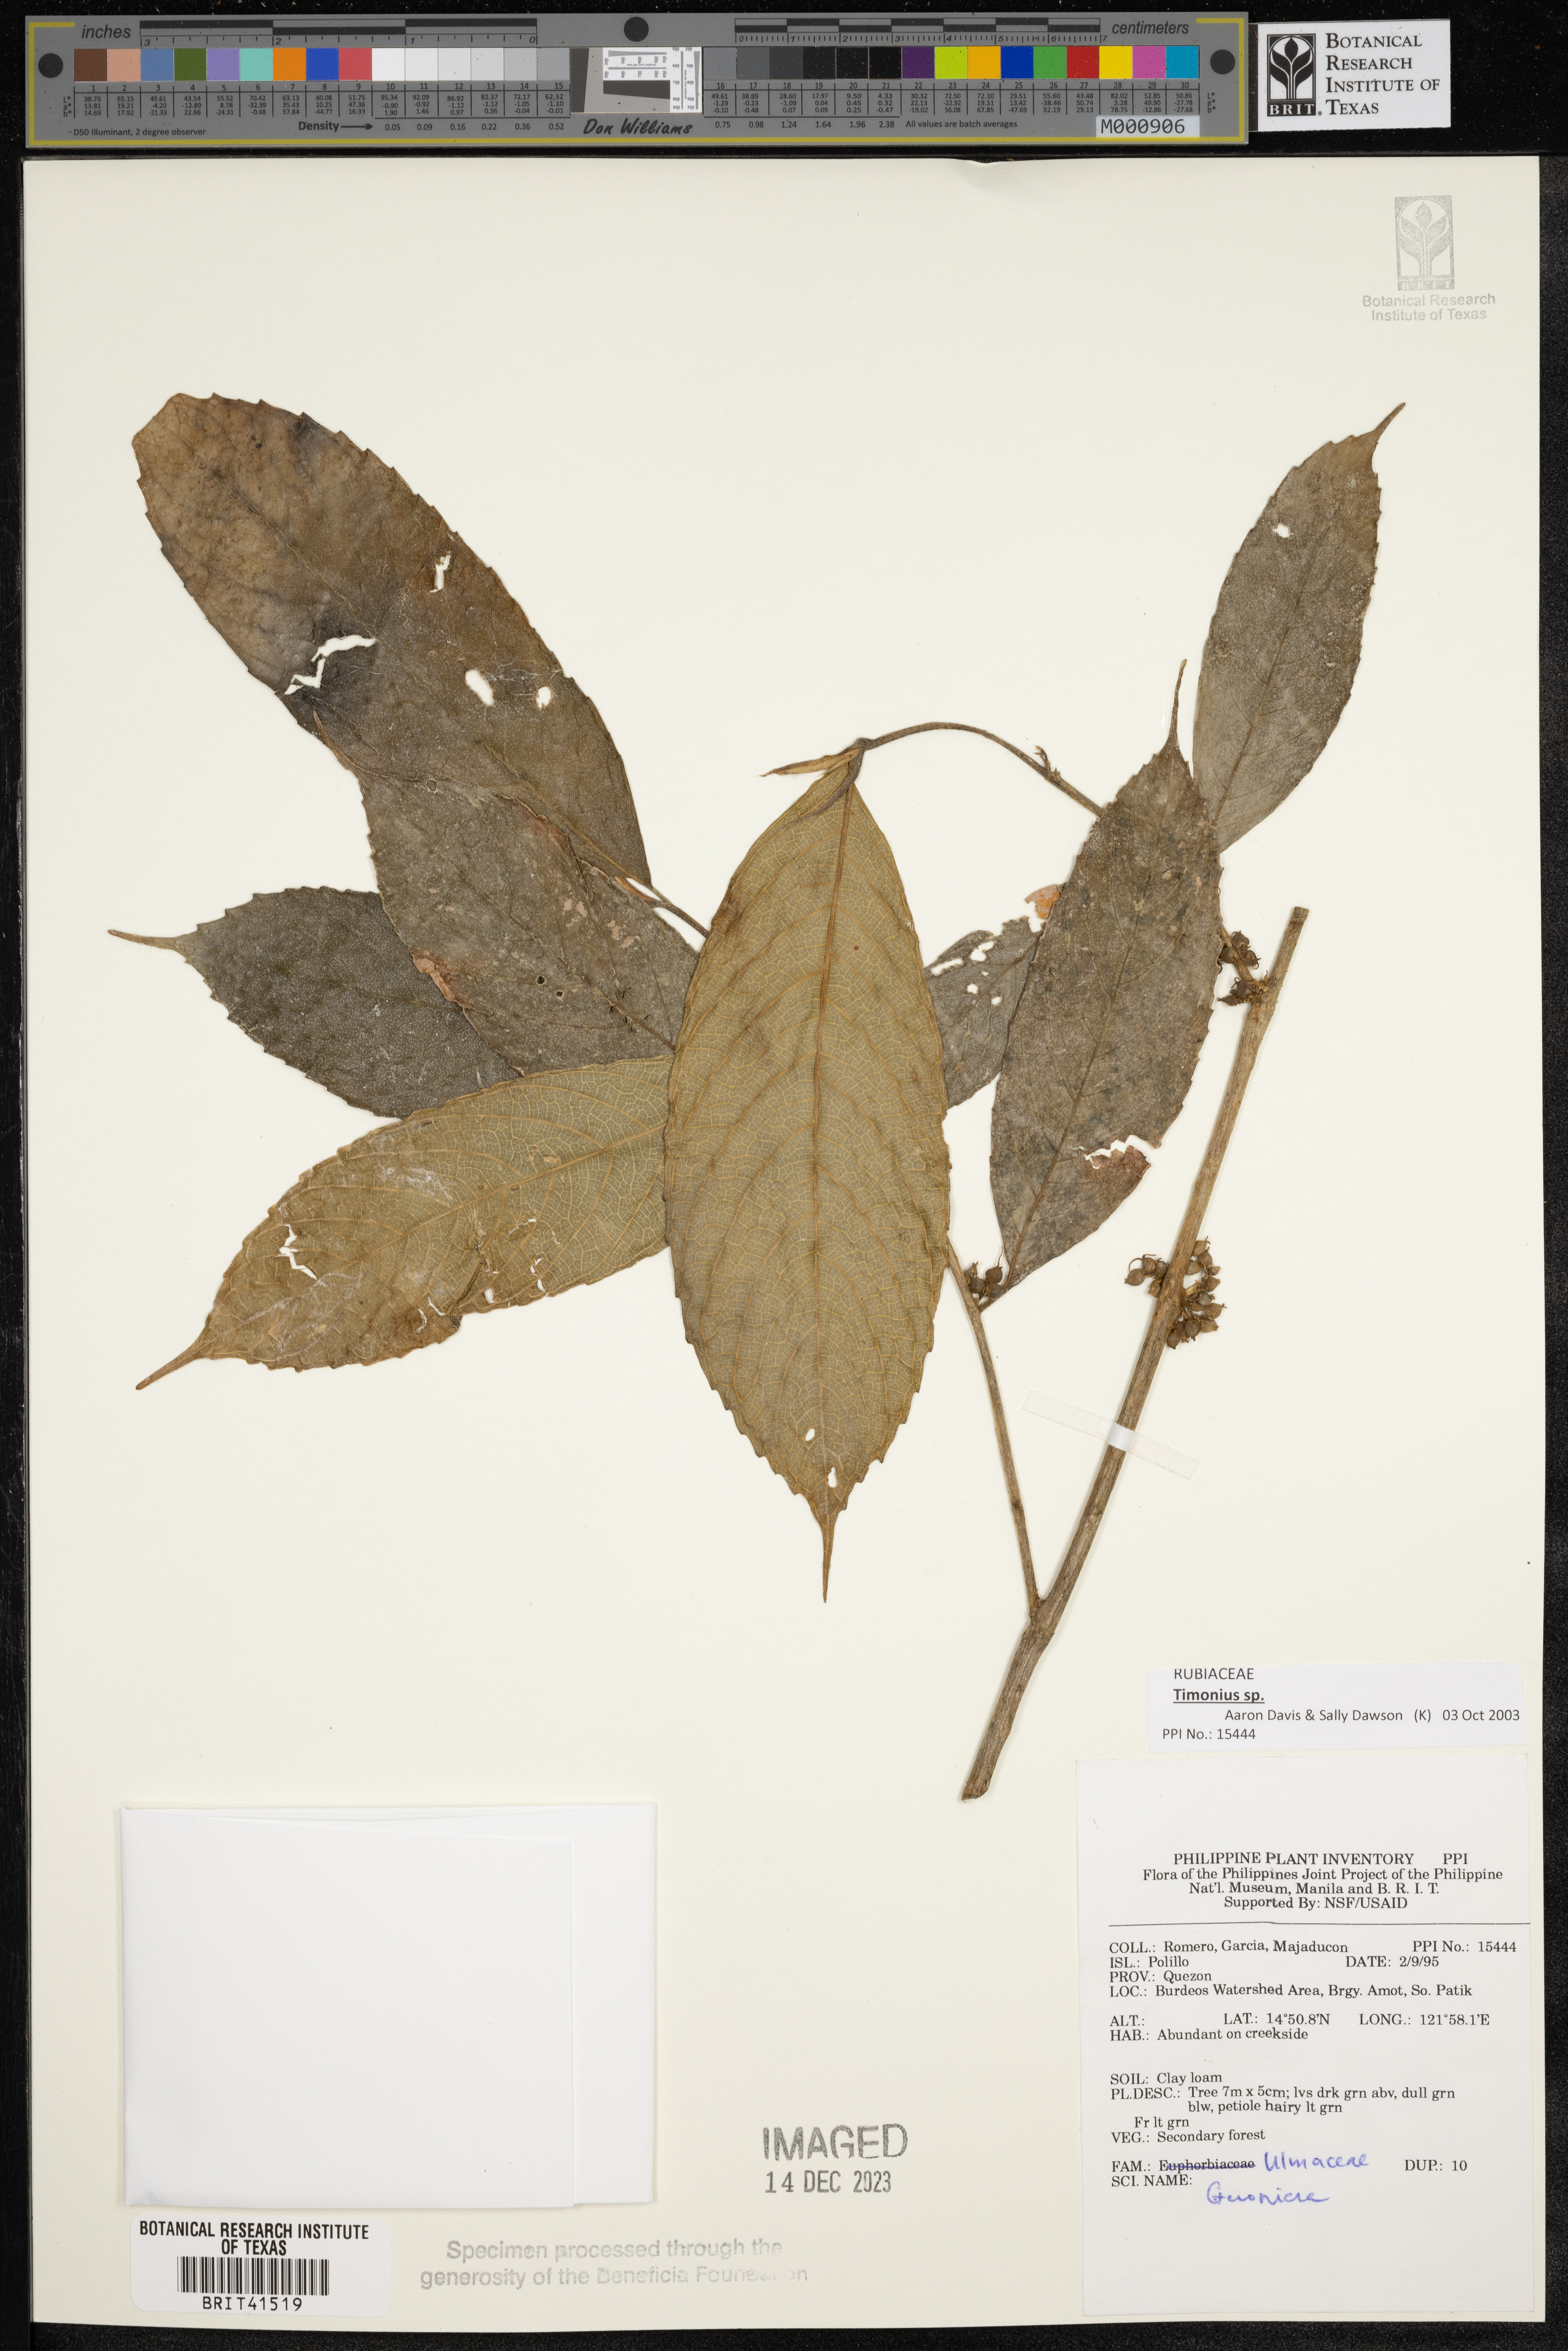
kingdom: Plantae
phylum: Tracheophyta
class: Magnoliopsida
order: Rosales
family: Cannabaceae
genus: Gironniera
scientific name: Gironniera
